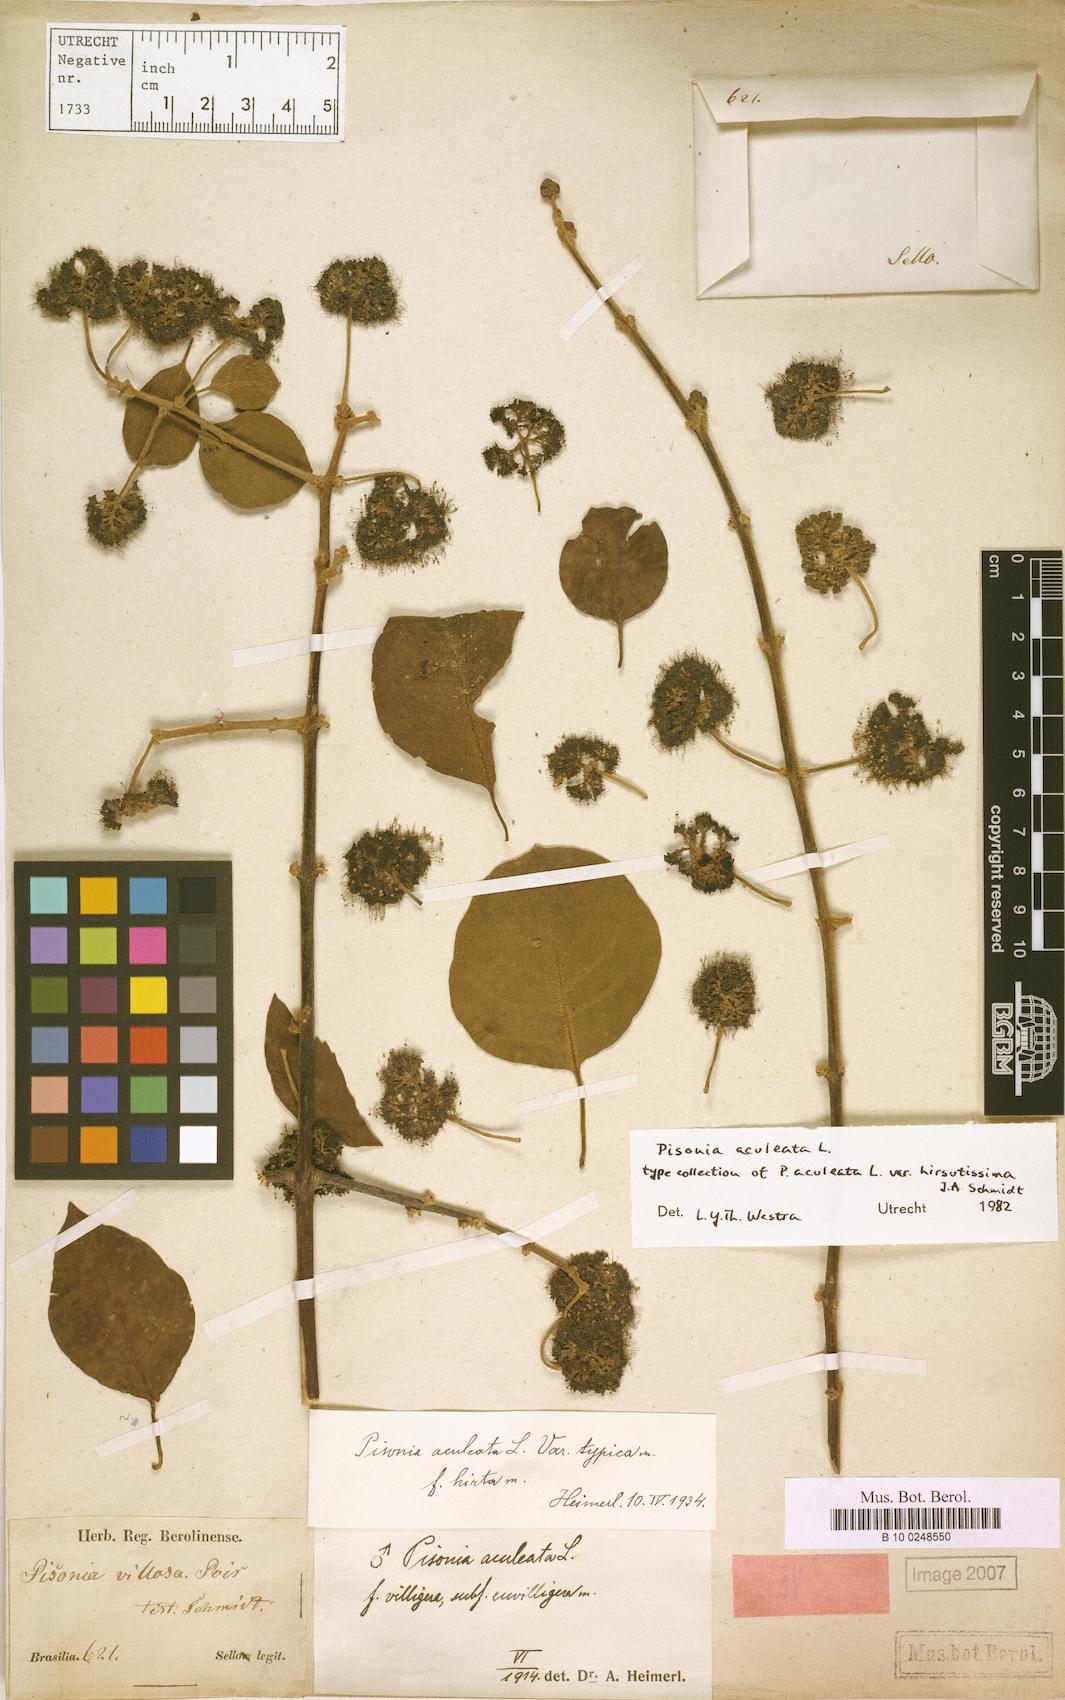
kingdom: Plantae
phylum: Tracheophyta
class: Magnoliopsida
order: Caryophyllales
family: Nyctaginaceae
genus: Pisonia
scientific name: Pisonia aculeata
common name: Cockspur vine
